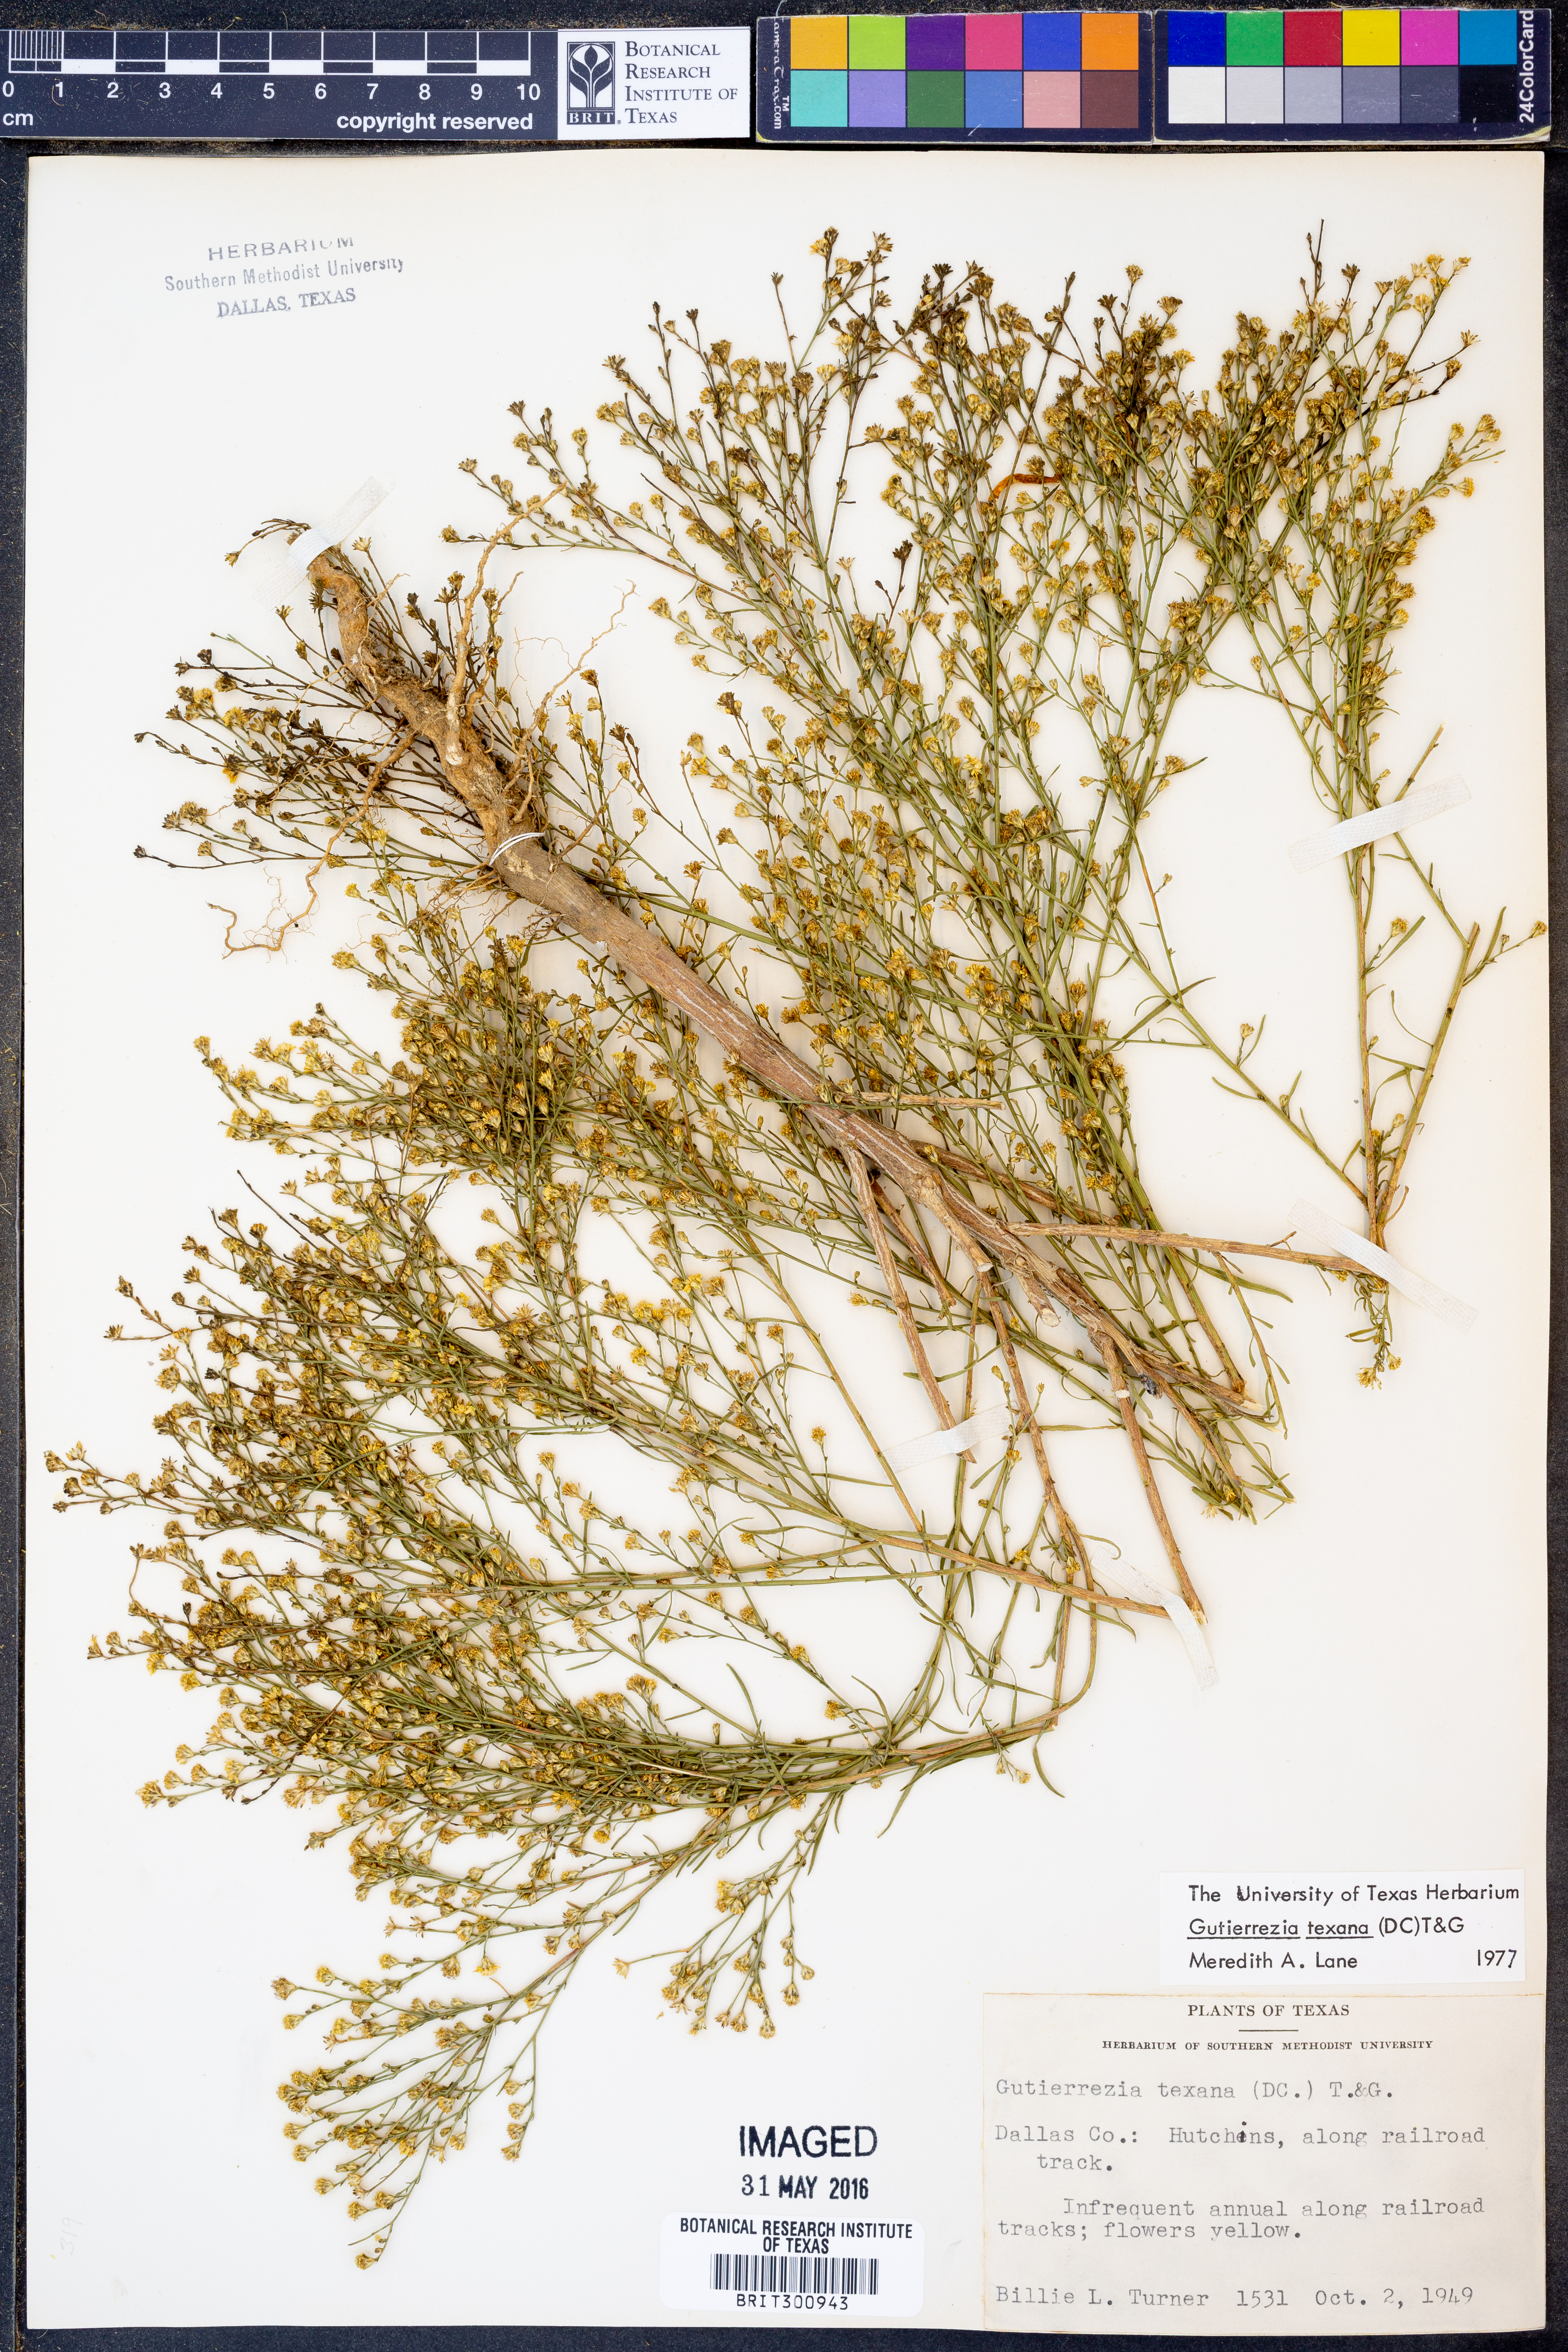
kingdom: Plantae
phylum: Tracheophyta
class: Magnoliopsida
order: Asterales
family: Asteraceae
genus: Gutierrezia
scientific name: Gutierrezia texana
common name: Texas snakeweed
